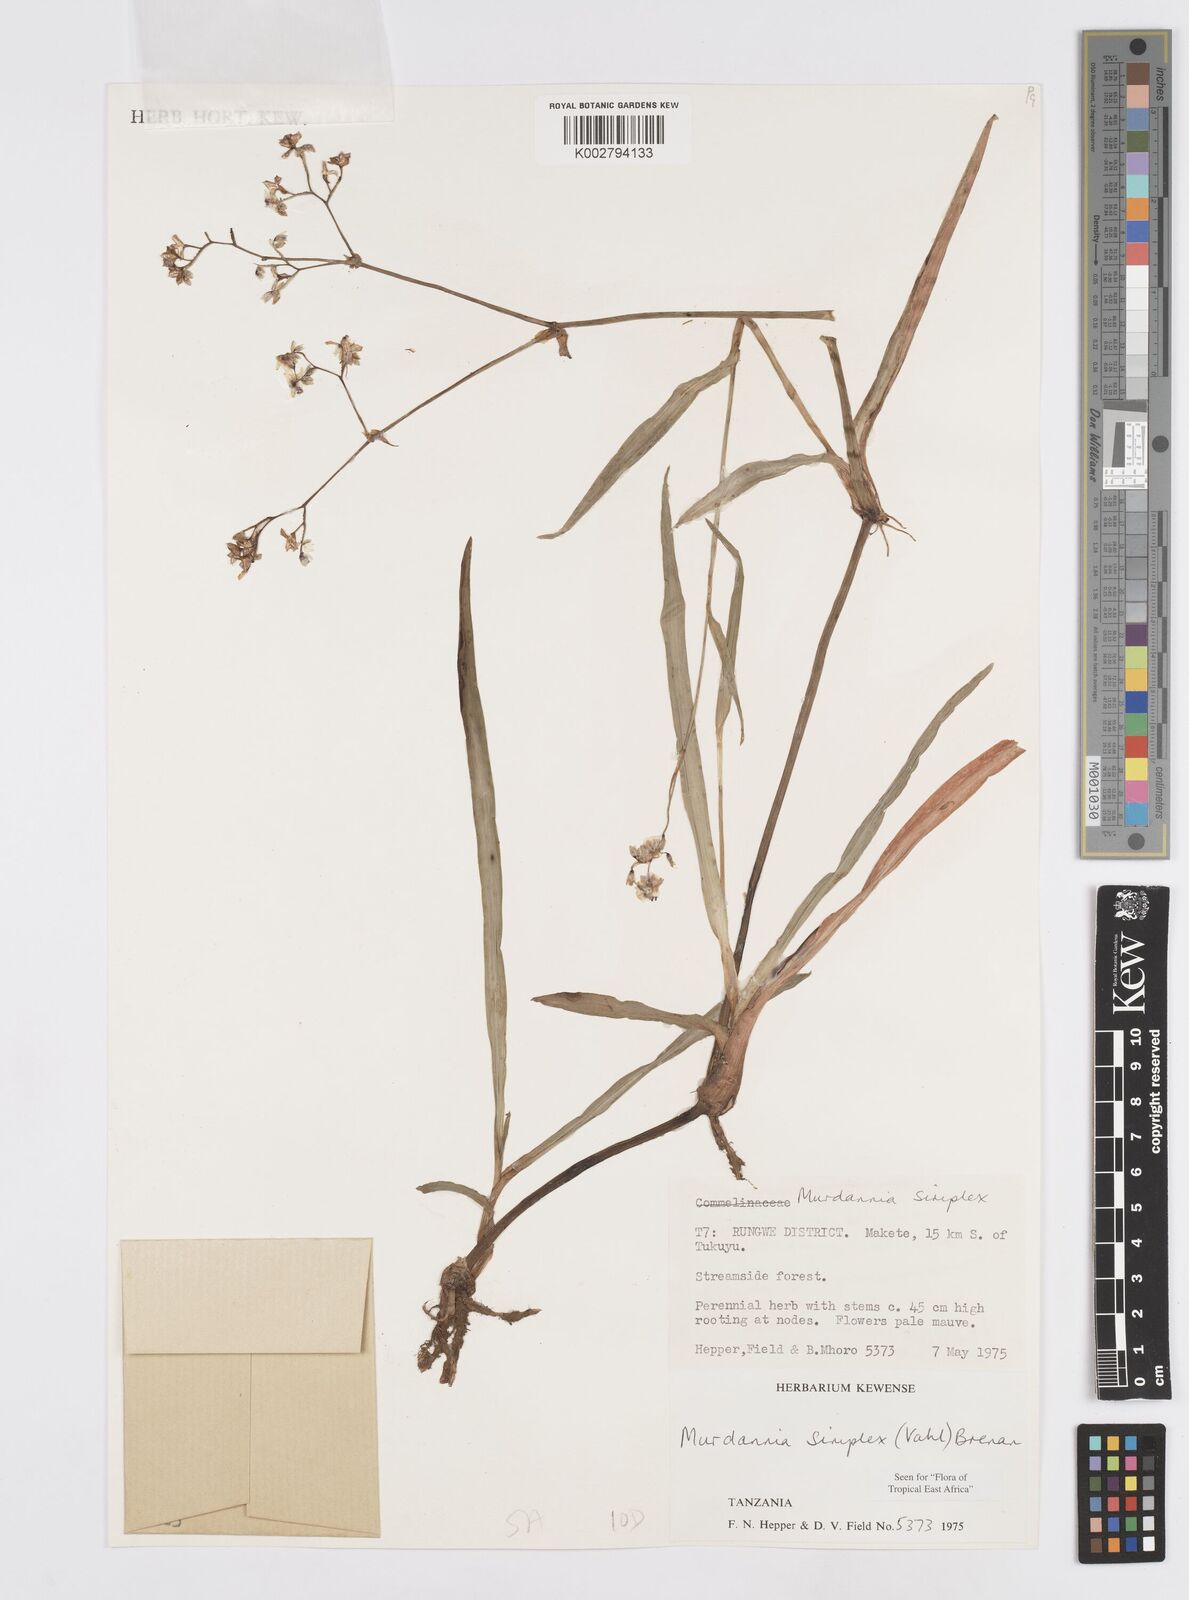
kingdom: Plantae
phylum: Tracheophyta
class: Liliopsida
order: Commelinales
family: Commelinaceae
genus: Murdannia
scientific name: Murdannia simplex
